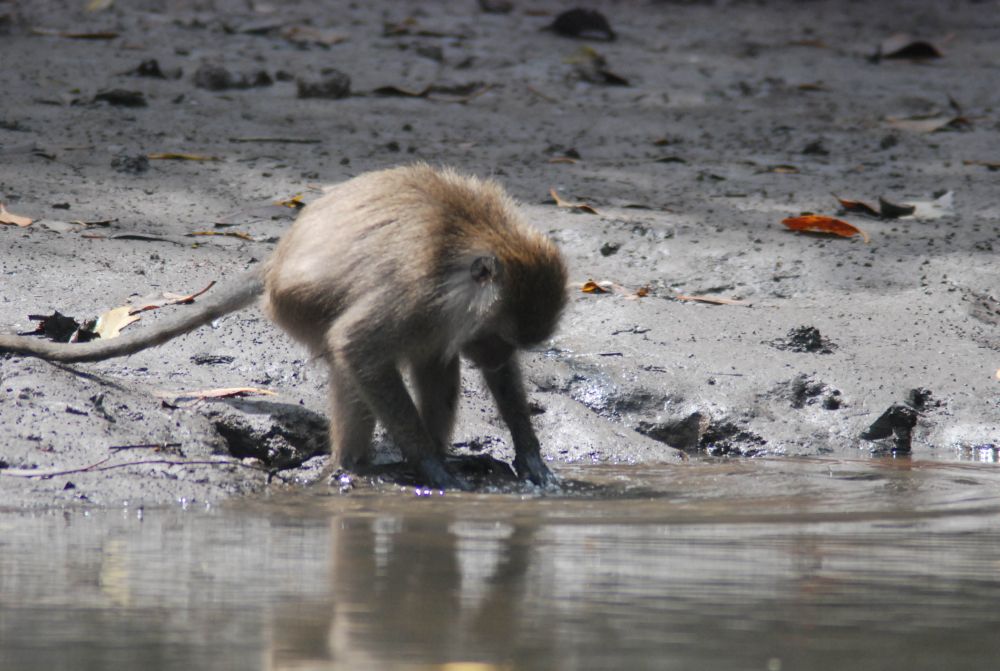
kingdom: Animalia
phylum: Chordata
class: Mammalia
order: Primates
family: Cercopithecidae
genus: Macaca
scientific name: Macaca fascicularis
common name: Crab-eating macaque
